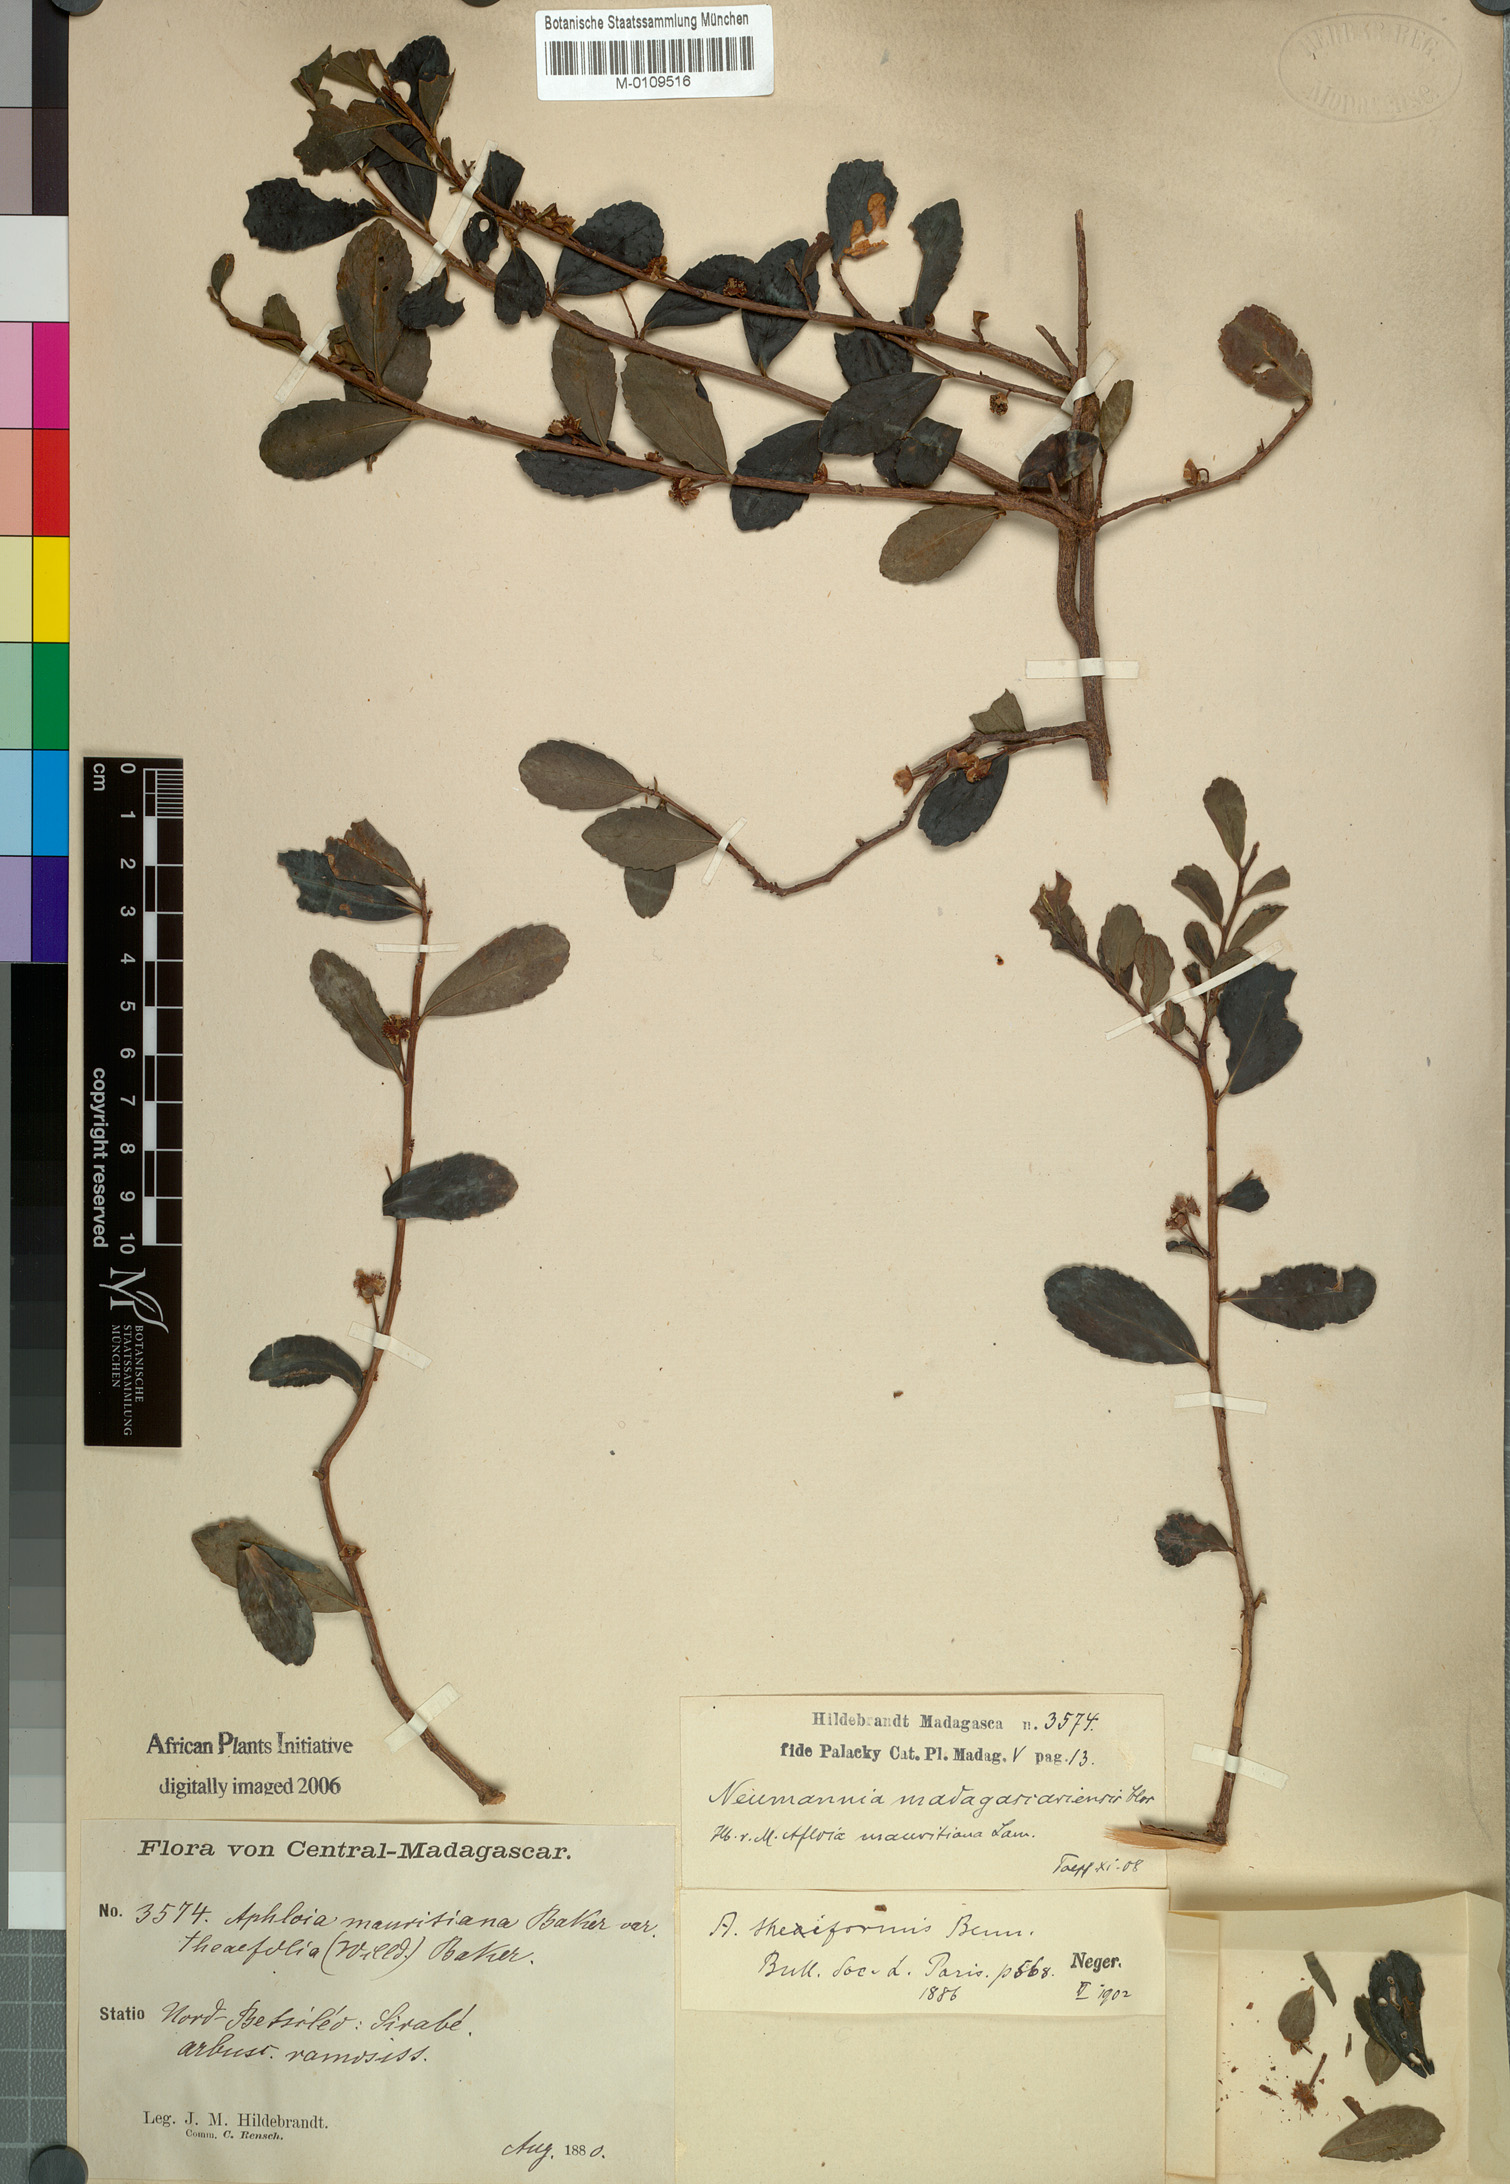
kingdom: Plantae
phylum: Tracheophyta
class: Magnoliopsida
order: Crossosomatales
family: Aphloiaceae
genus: Aphloia
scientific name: Aphloia theiformis
